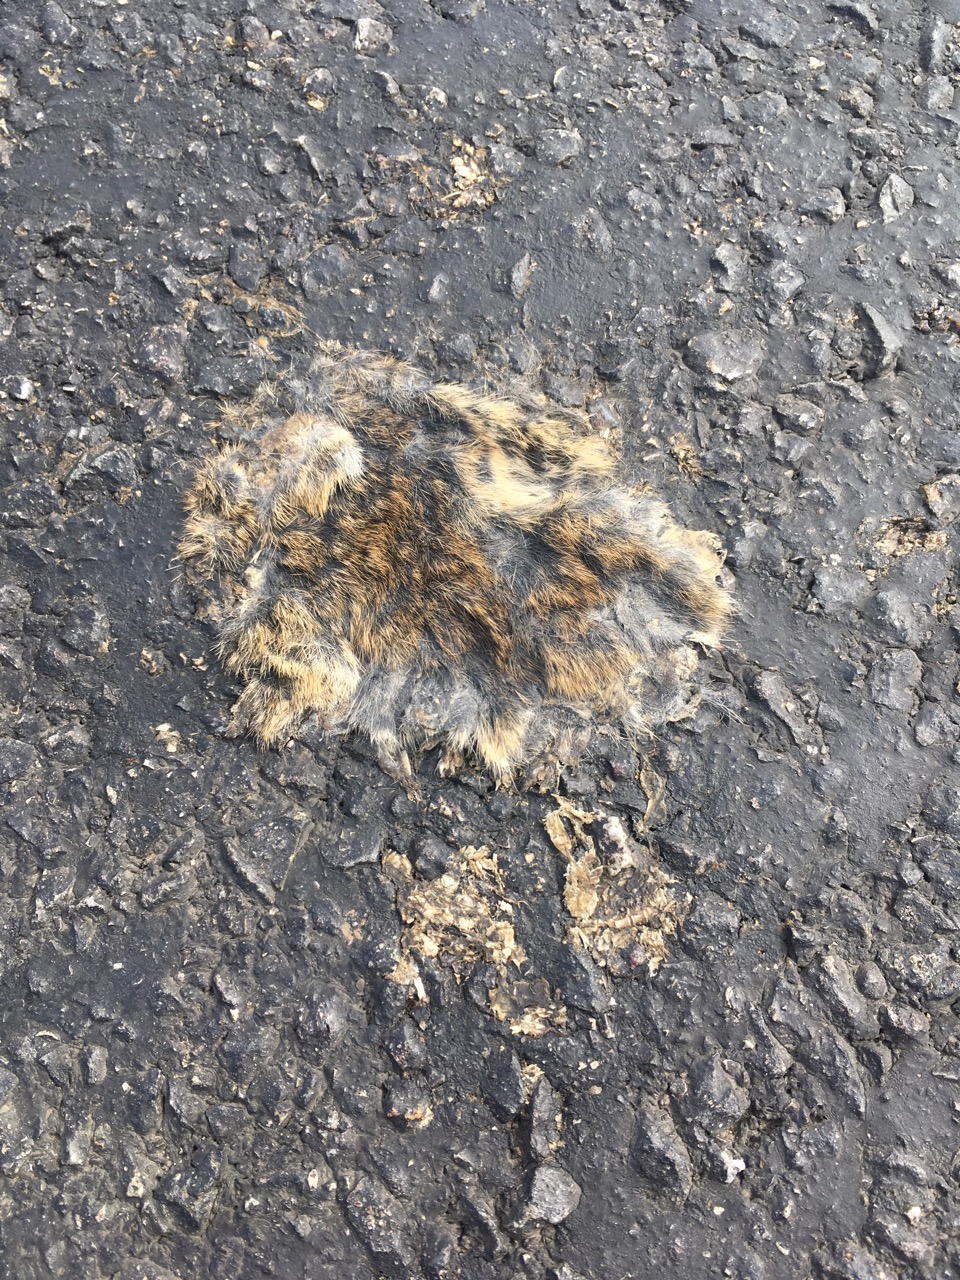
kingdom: Animalia
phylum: Chordata
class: Mammalia
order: Rodentia
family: Cricetidae
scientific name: Cricetidae
